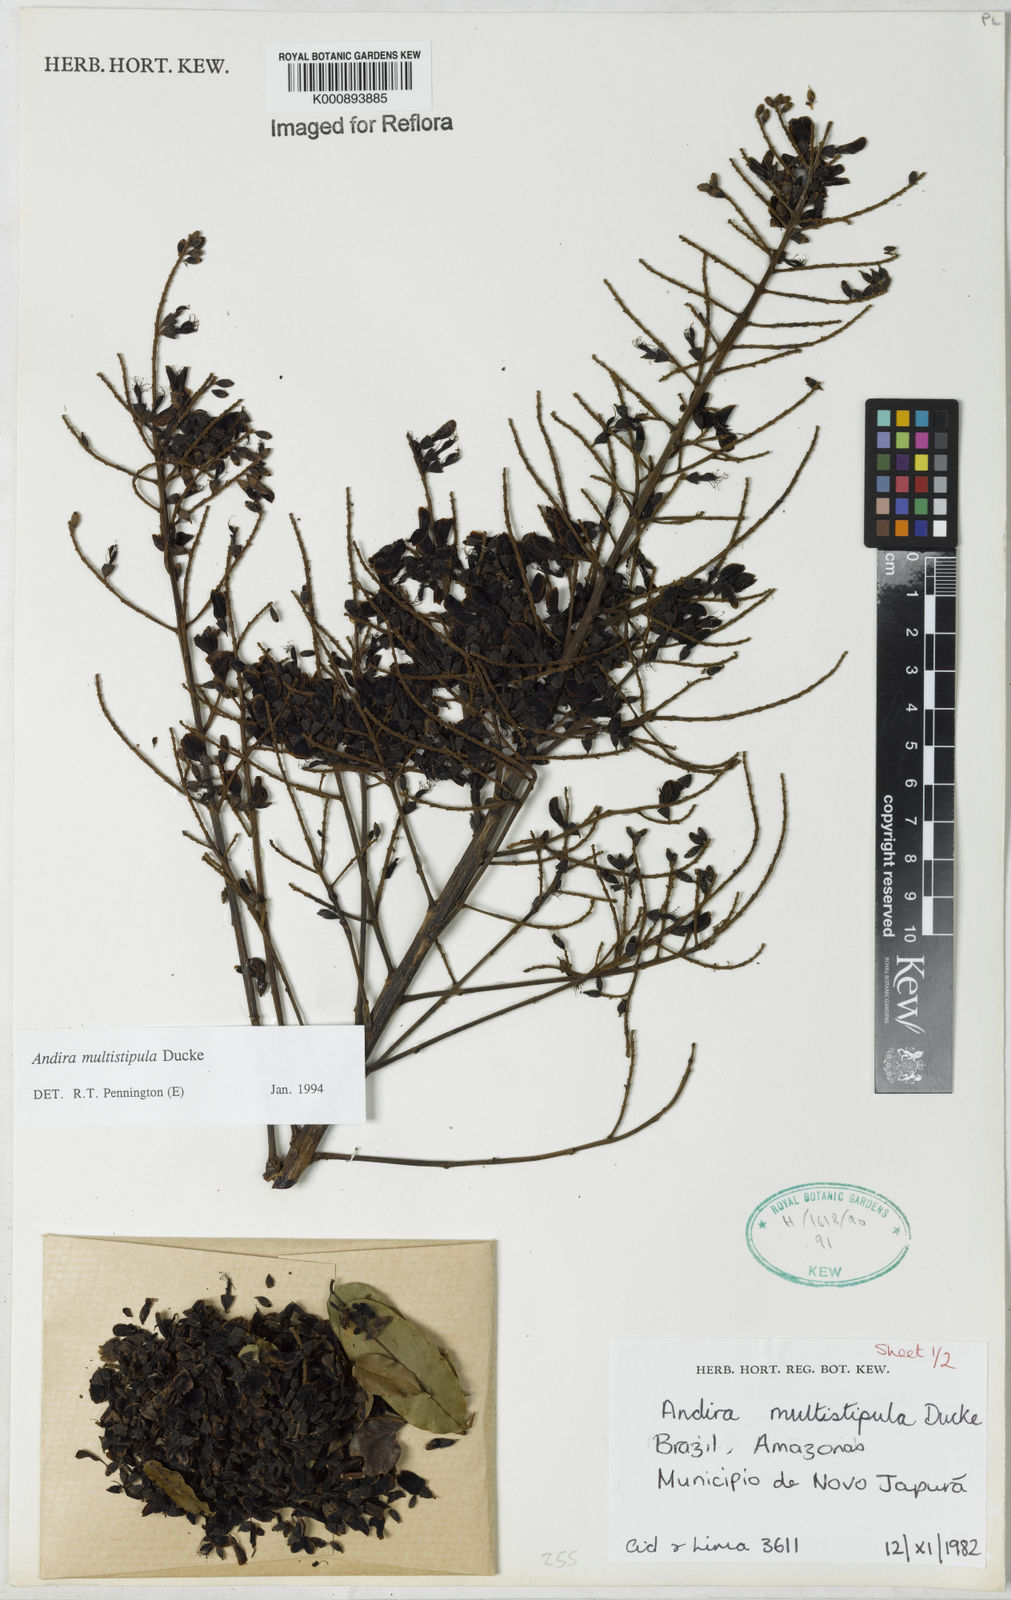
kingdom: Plantae
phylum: Tracheophyta
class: Magnoliopsida
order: Fabales
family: Fabaceae
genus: Andira
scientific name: Andira multistipula
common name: Pisho
